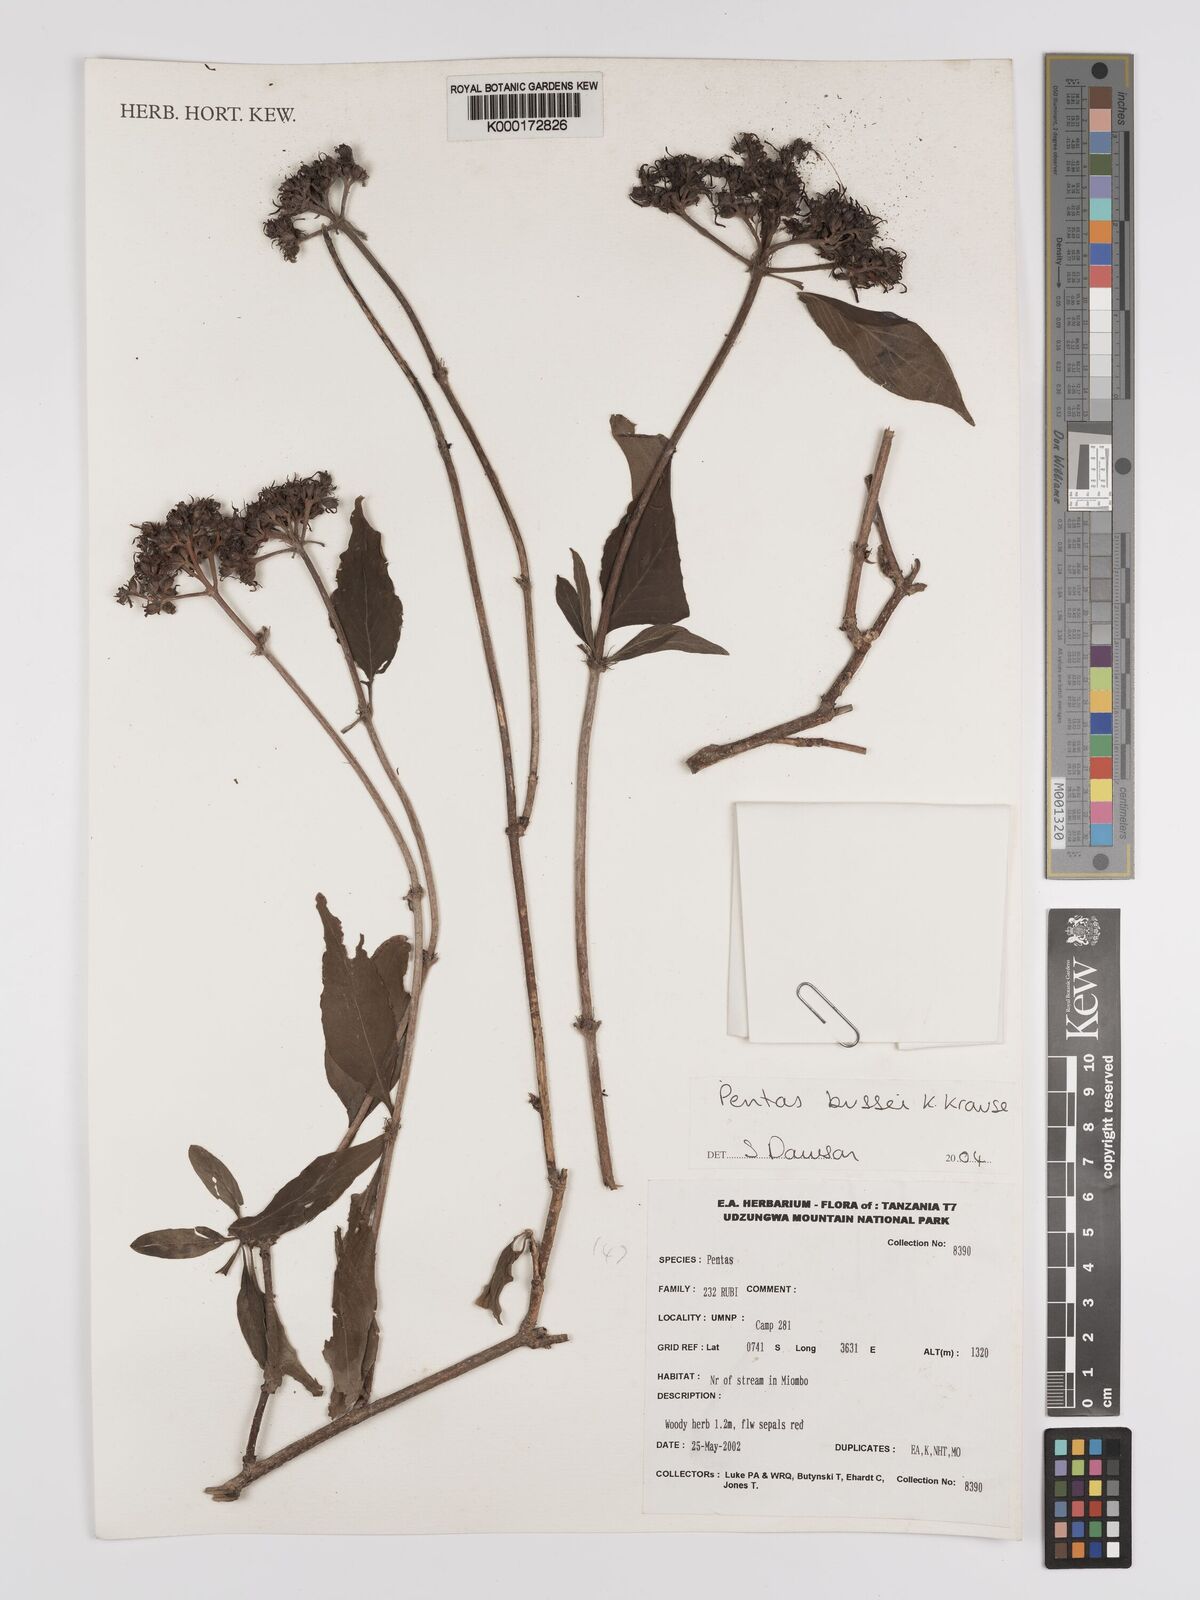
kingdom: Plantae
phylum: Tracheophyta
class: Magnoliopsida
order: Gentianales
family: Rubiaceae
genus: Rhodopentas
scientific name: Rhodopentas
